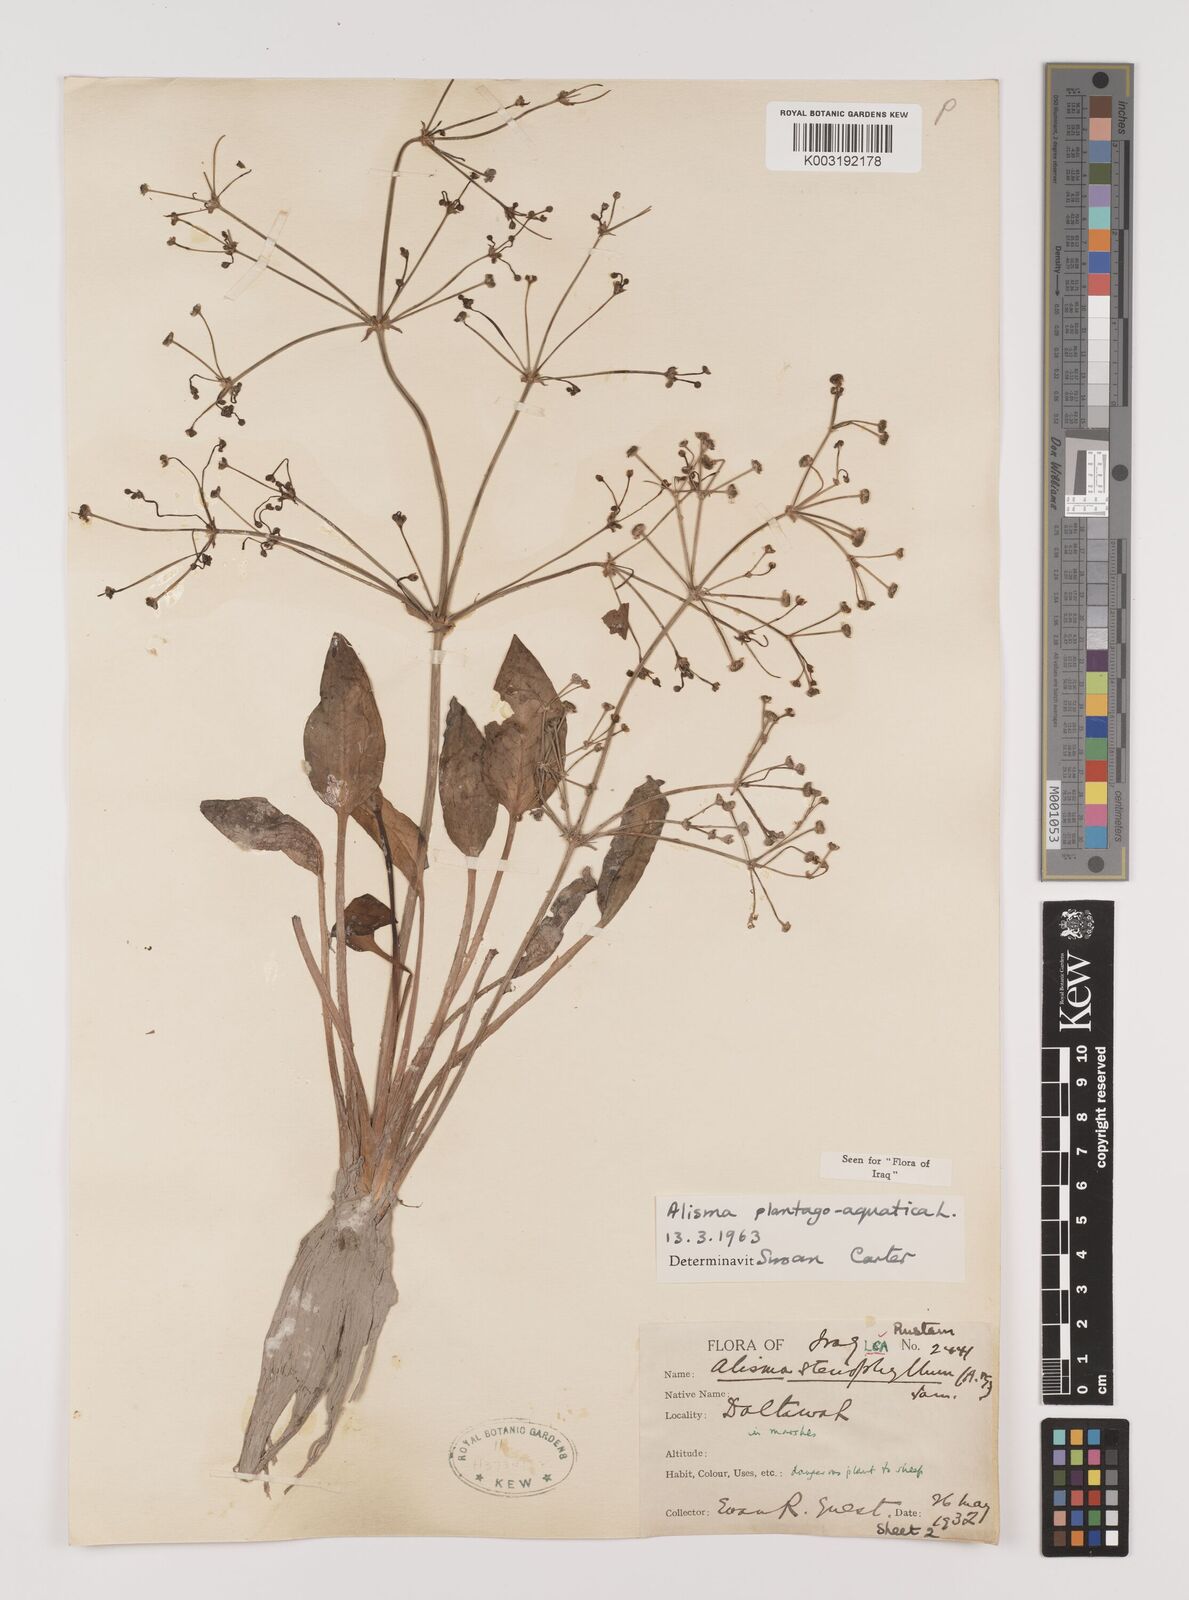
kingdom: Plantae
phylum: Tracheophyta
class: Liliopsida
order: Alismatales
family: Alismataceae
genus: Alisma
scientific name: Alisma plantago-aquatica
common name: Water-plantain
